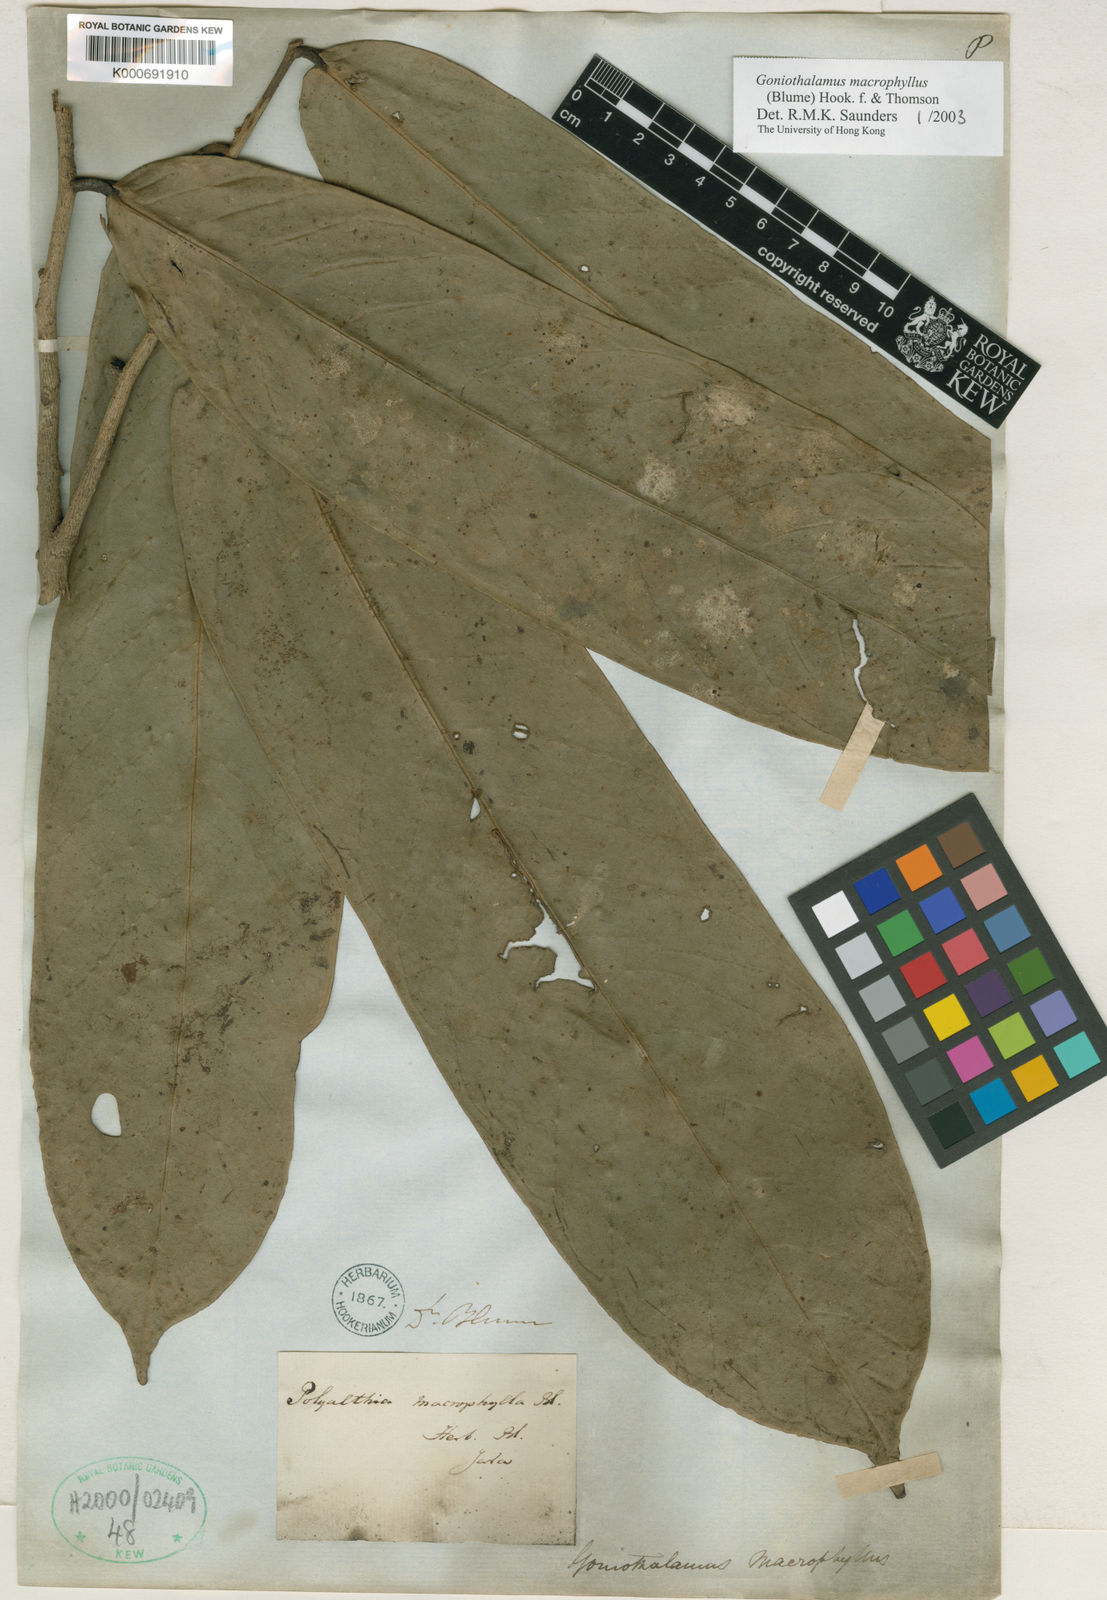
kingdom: Plantae
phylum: Tracheophyta
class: Magnoliopsida
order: Magnoliales
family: Annonaceae
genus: Goniothalamus
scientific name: Goniothalamus
